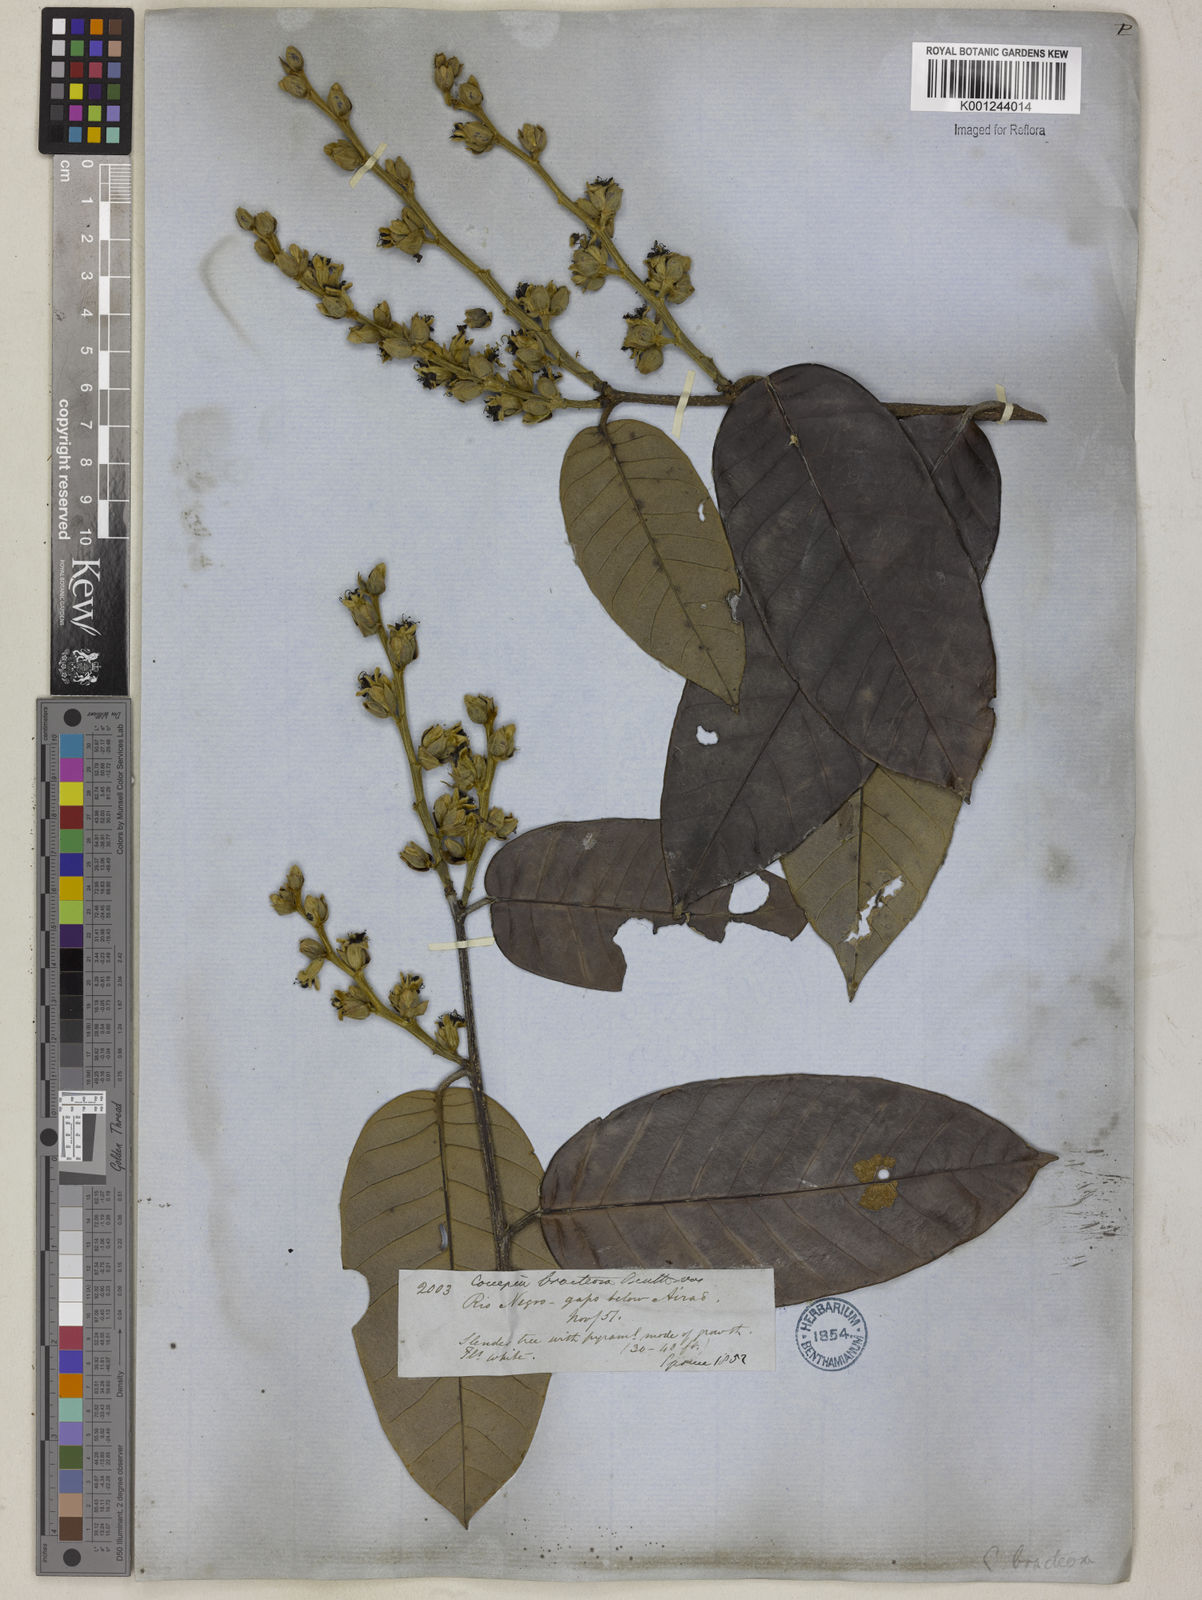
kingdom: Plantae
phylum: Tracheophyta
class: Magnoliopsida
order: Malpighiales
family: Chrysobalanaceae
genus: Couepia
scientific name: Couepia bracteosa
